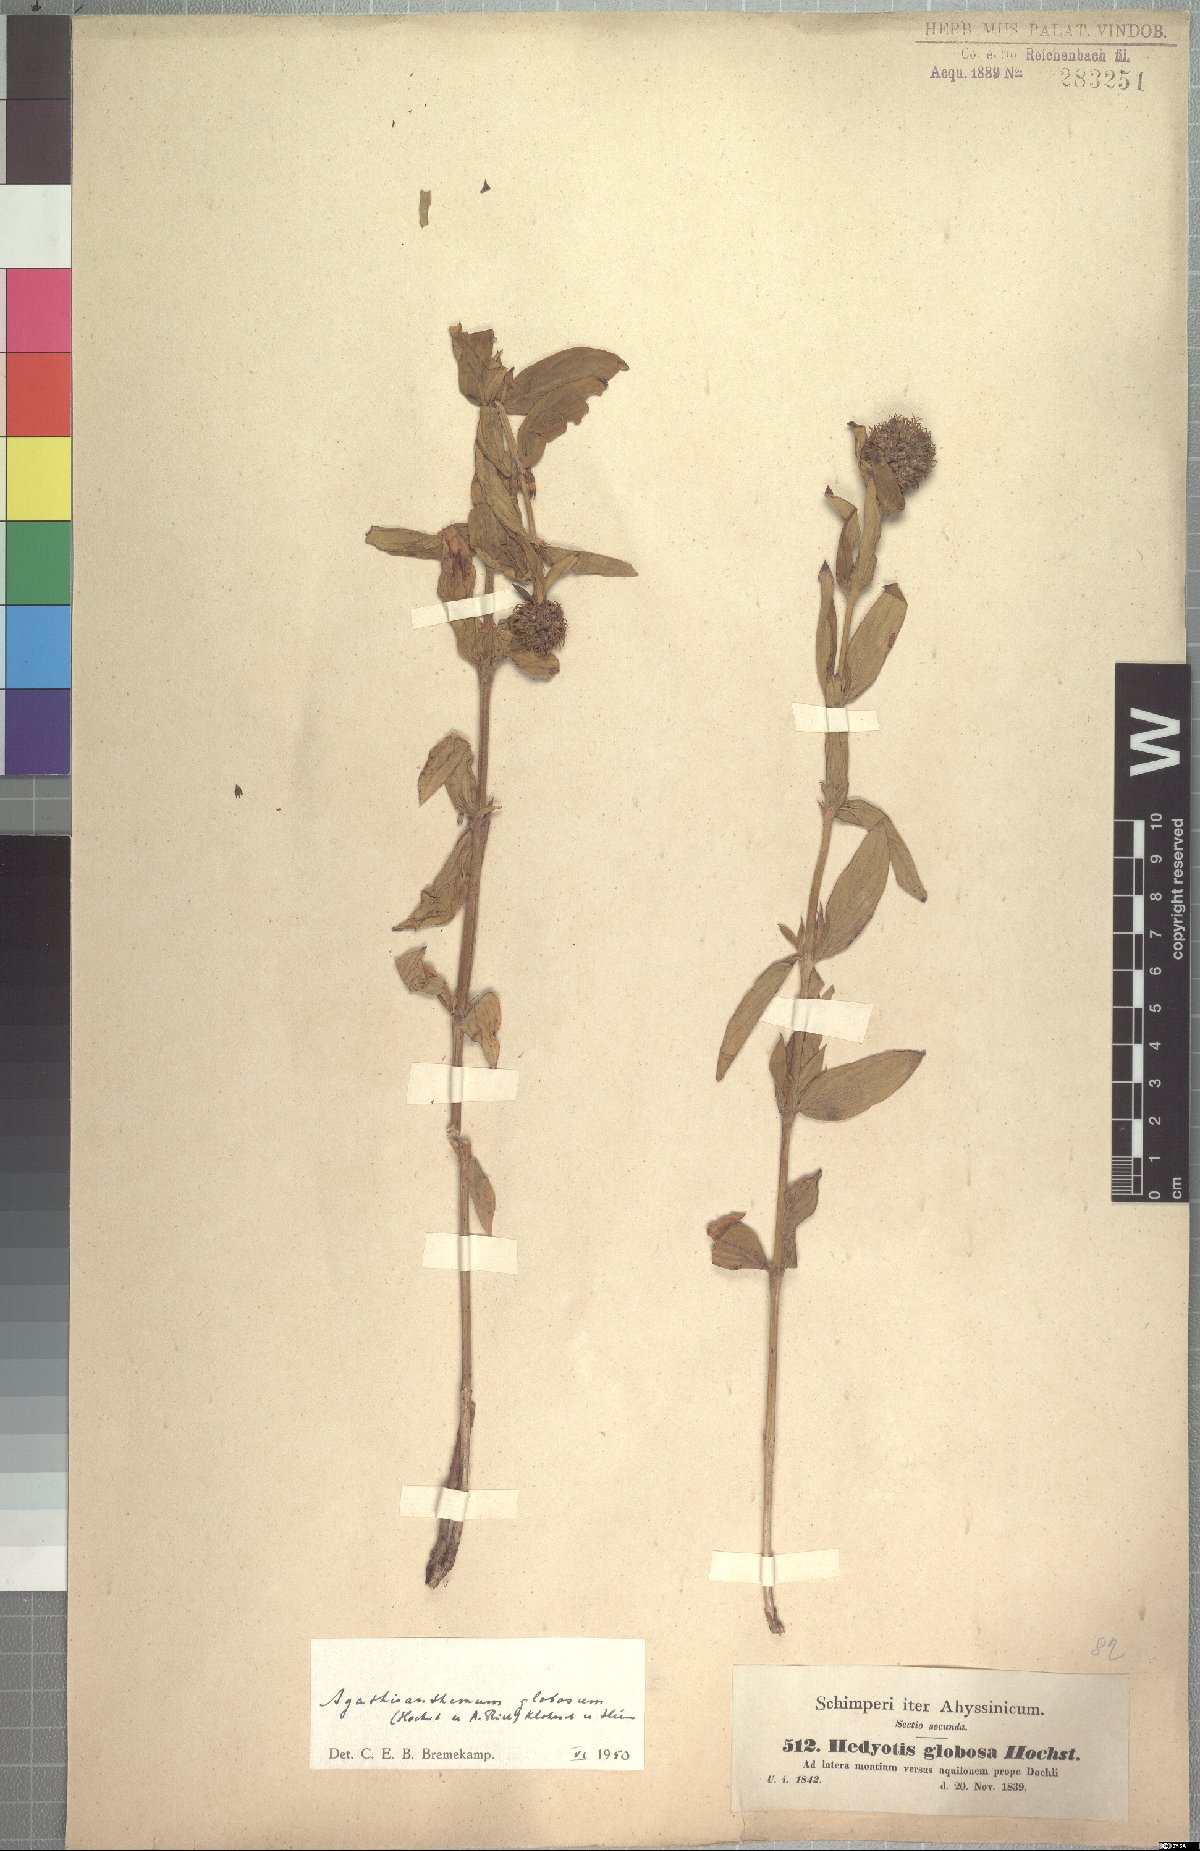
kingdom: Plantae
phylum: Tracheophyta
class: Magnoliopsida
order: Gentianales
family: Rubiaceae
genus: Agathisanthemum
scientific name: Agathisanthemum globosum
